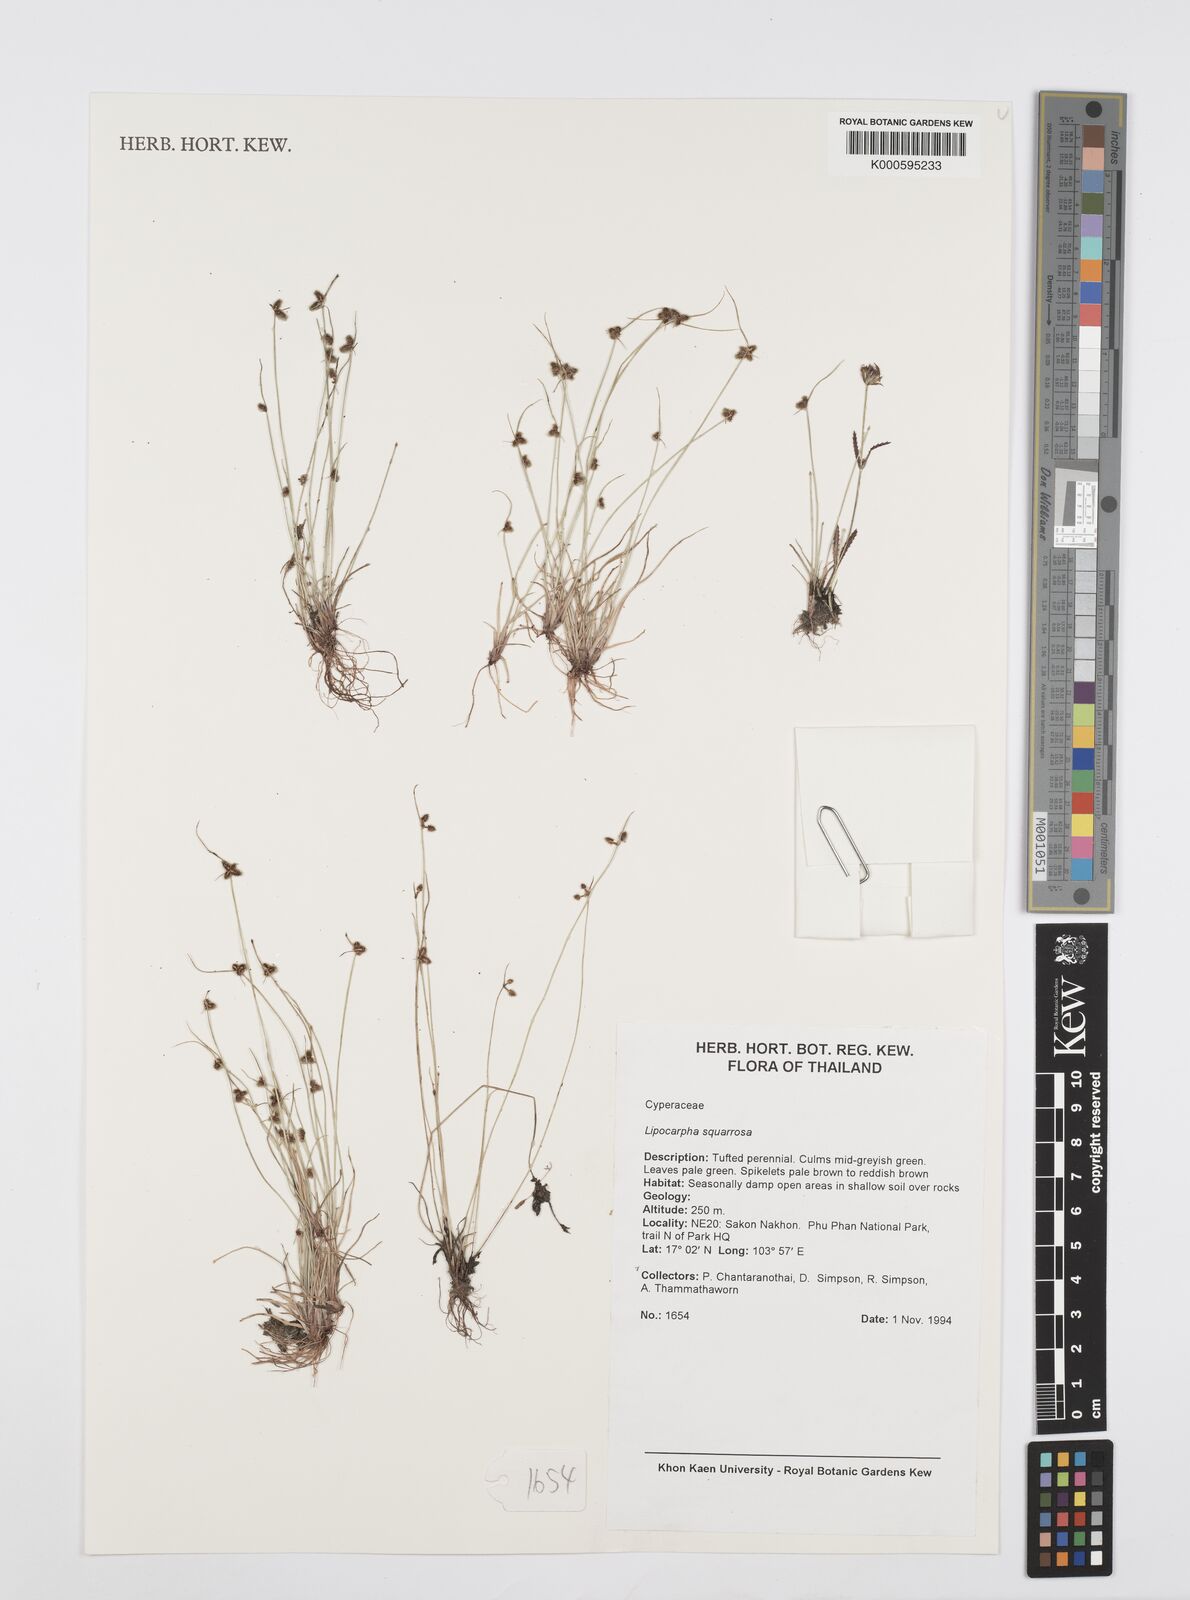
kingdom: Plantae
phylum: Tracheophyta
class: Liliopsida
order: Poales
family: Cyperaceae
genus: Cyperus
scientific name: Cyperus neochinensis
